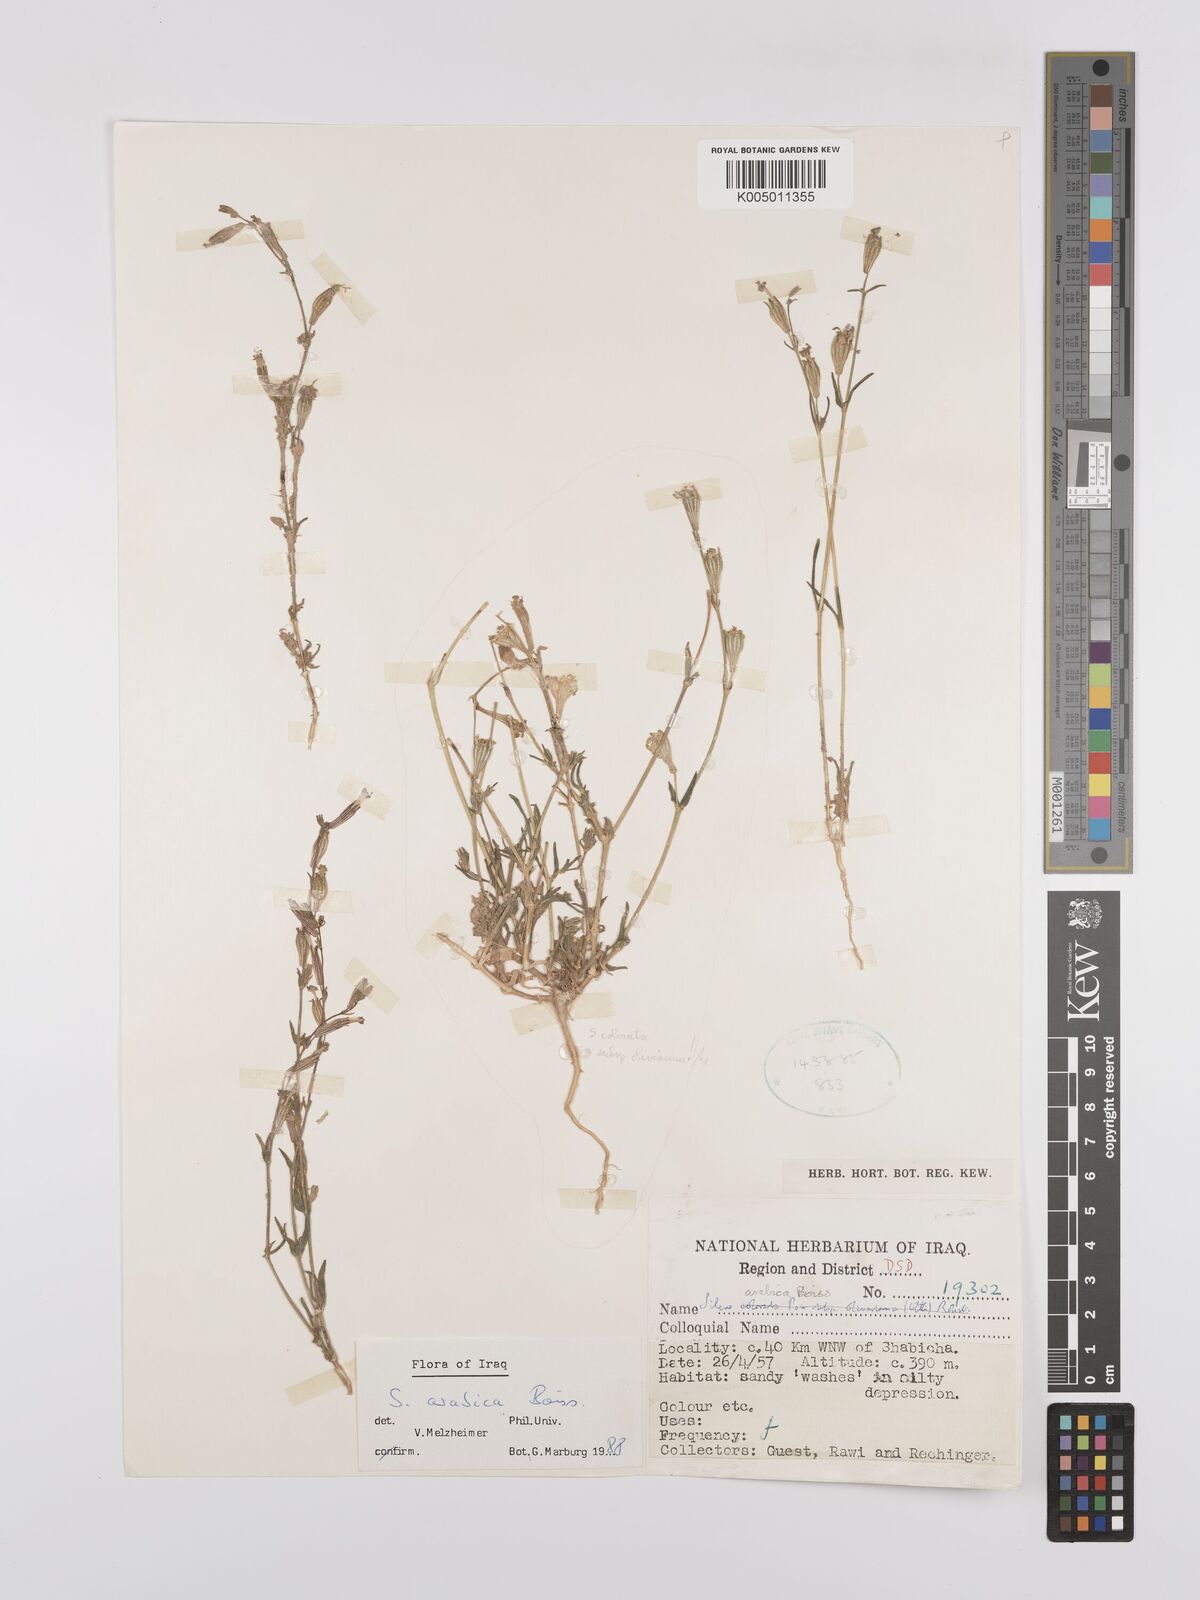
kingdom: Plantae
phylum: Tracheophyta
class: Magnoliopsida
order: Caryophyllales
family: Caryophyllaceae
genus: Silene
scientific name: Silene arabica
